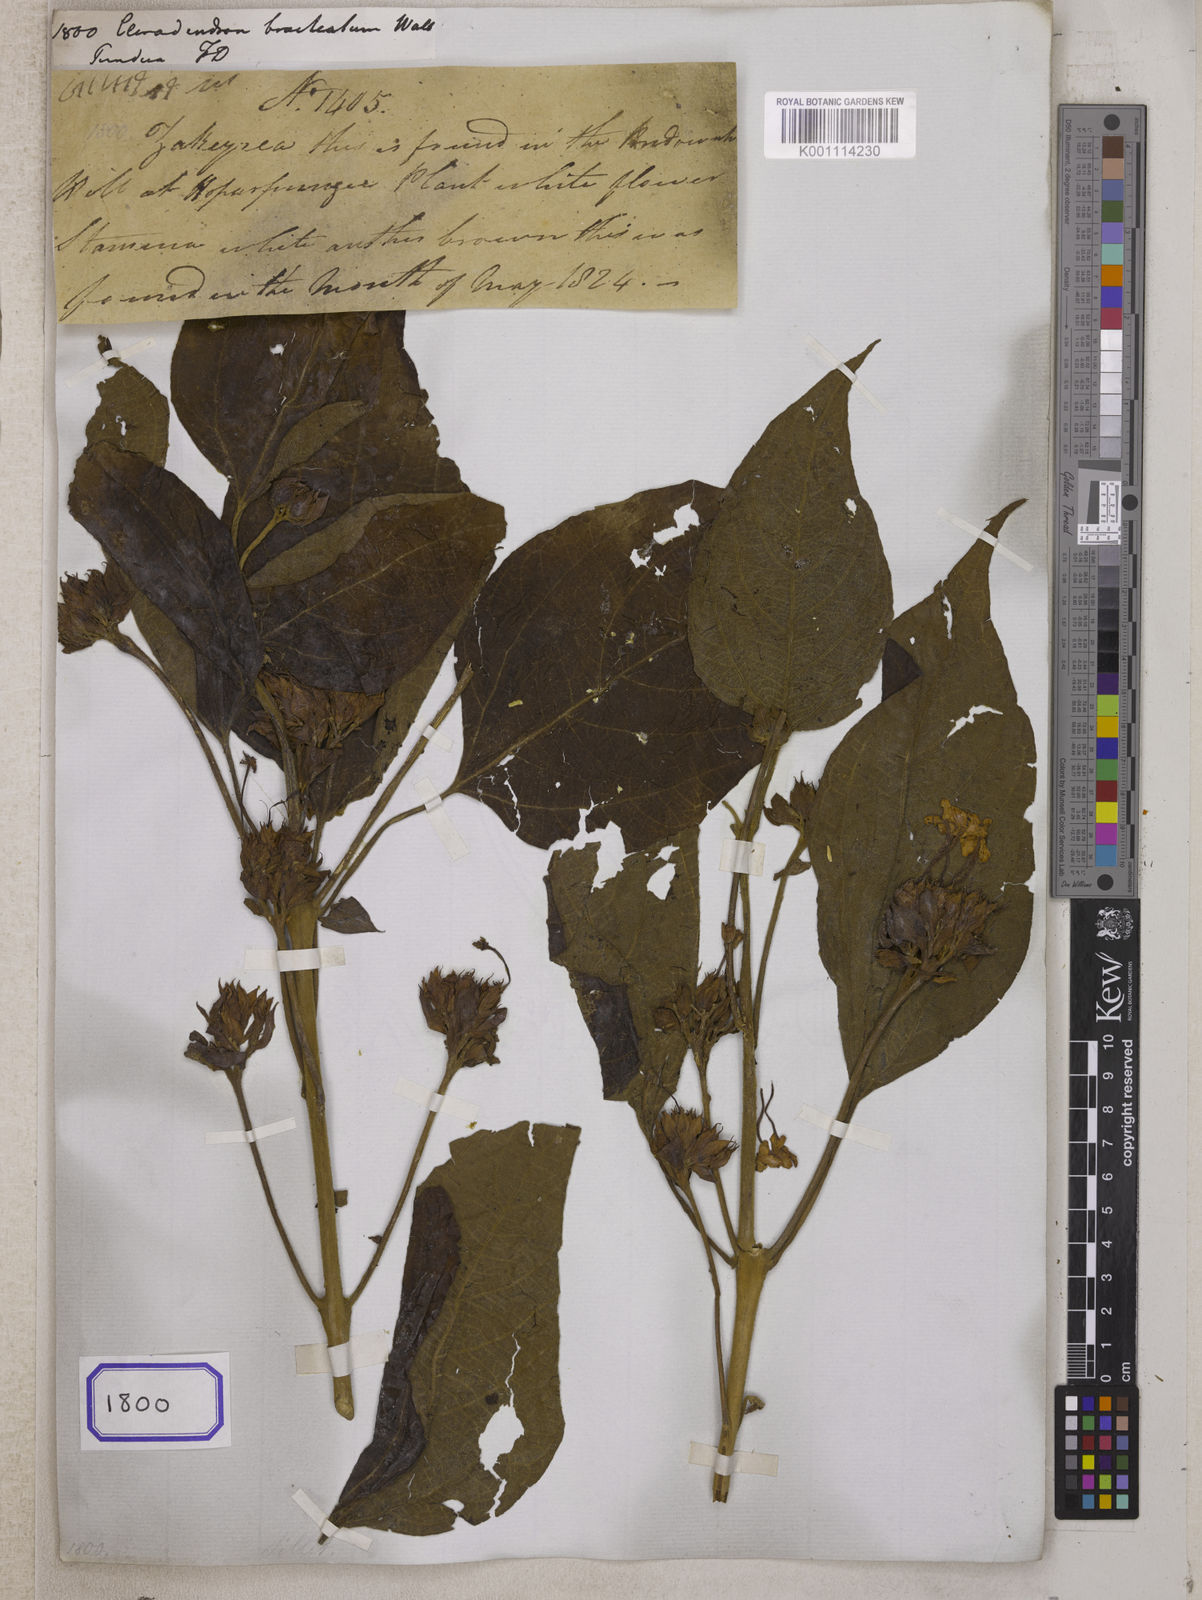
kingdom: Plantae
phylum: Tracheophyta
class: Magnoliopsida
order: Lamiales
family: Lamiaceae
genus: Clerodendrum
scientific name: Clerodendrum bracteatum
